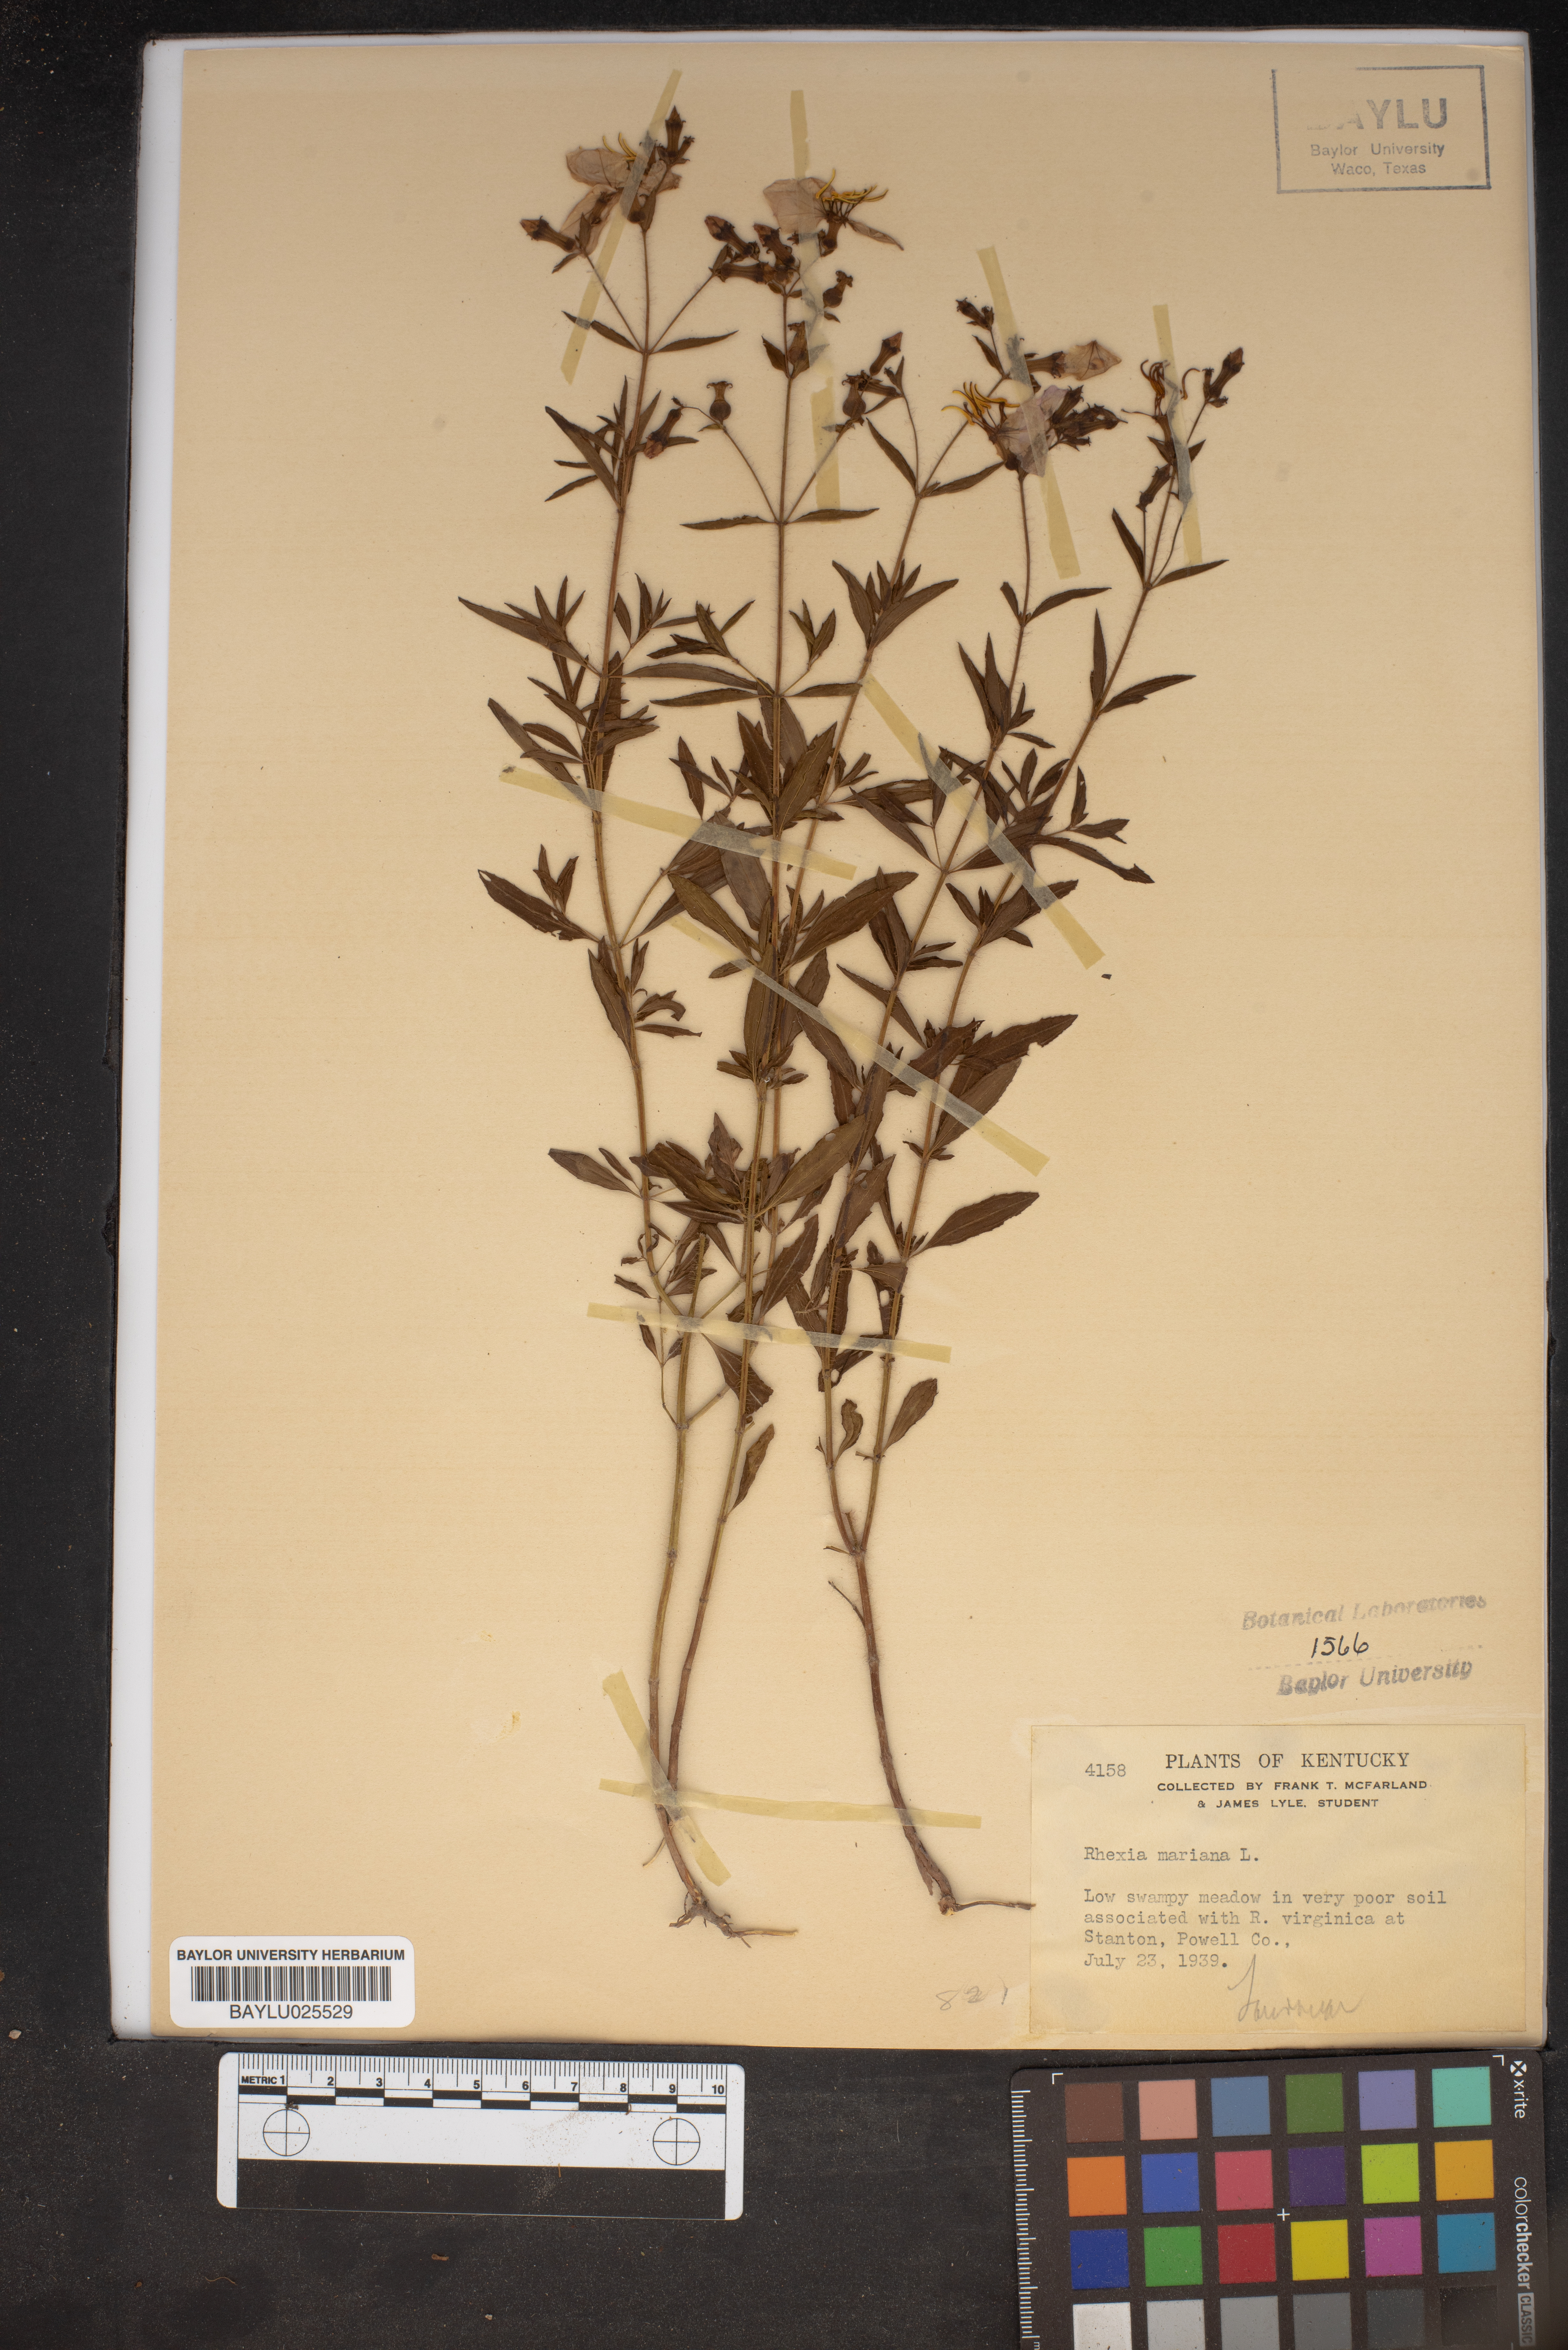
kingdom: Plantae
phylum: Tracheophyta
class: Magnoliopsida
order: Myrtales
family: Melastomataceae
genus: Rhexia
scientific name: Rhexia mariana
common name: Dull meadow-pitcher
